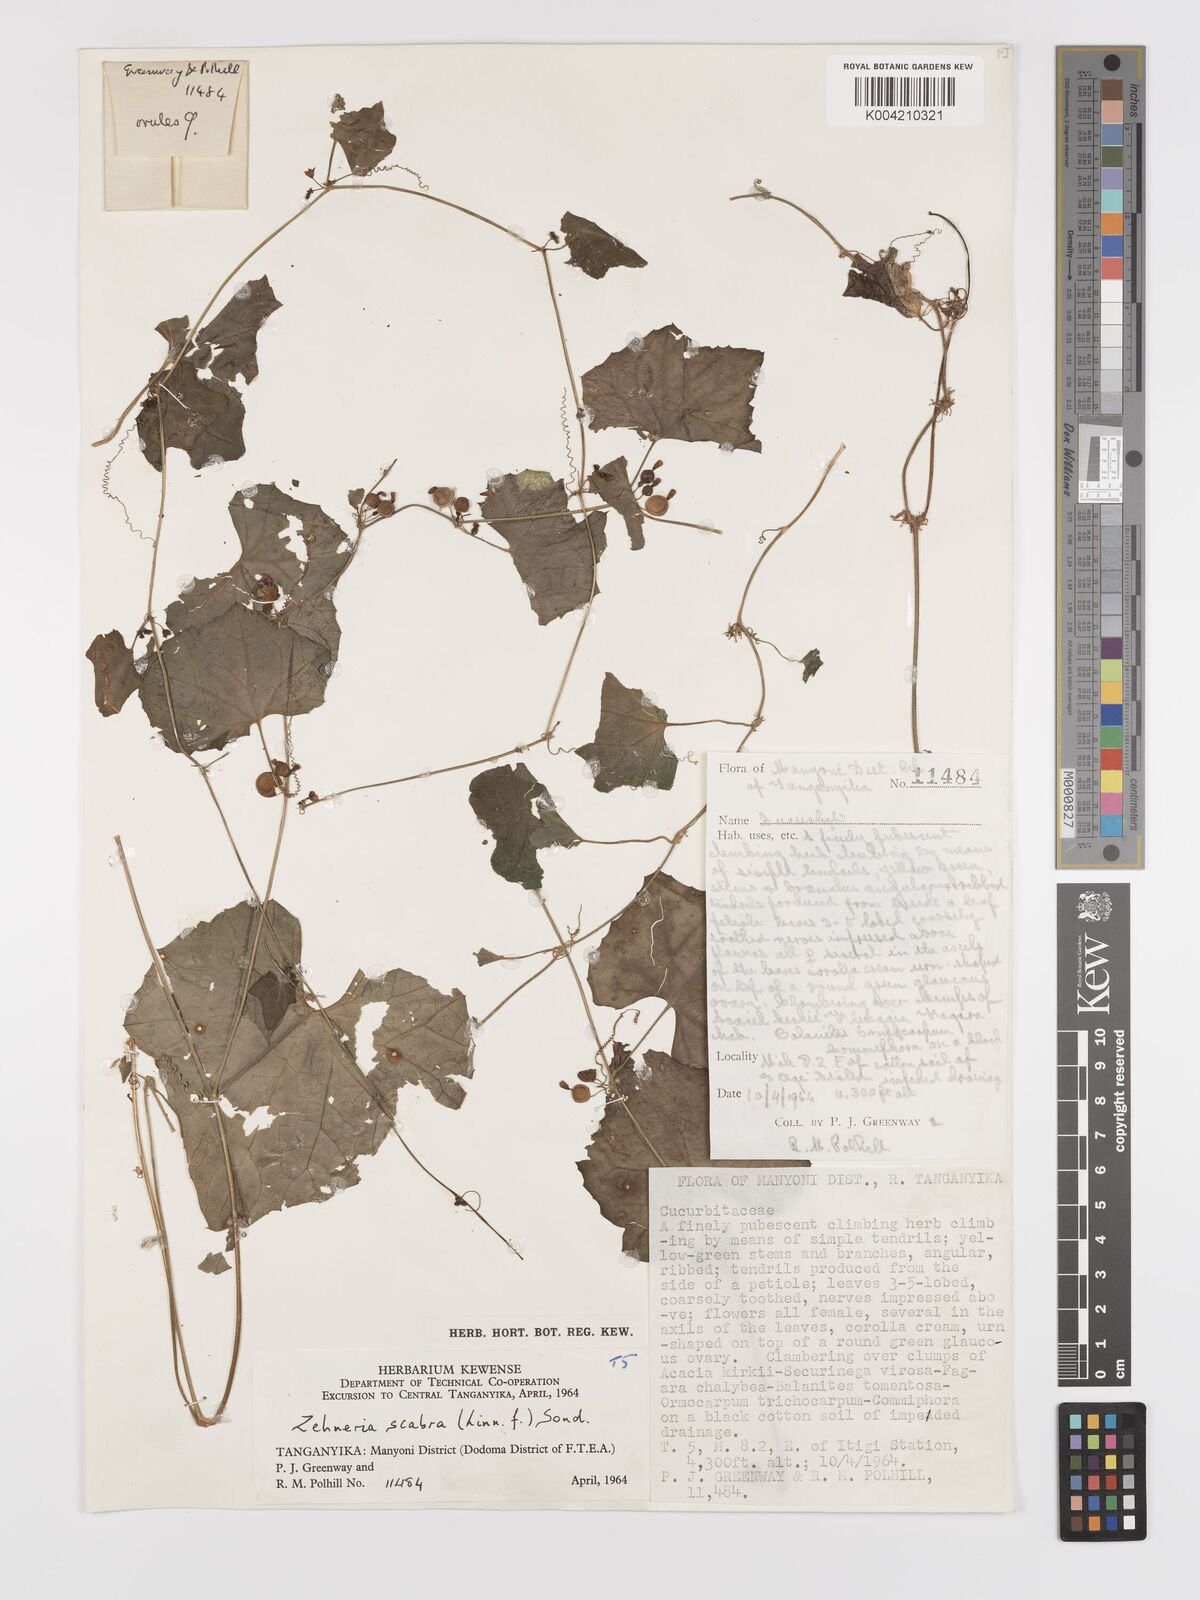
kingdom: Plantae
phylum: Tracheophyta
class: Magnoliopsida
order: Cucurbitales
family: Cucurbitaceae
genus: Zehneria
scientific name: Zehneria scabra
